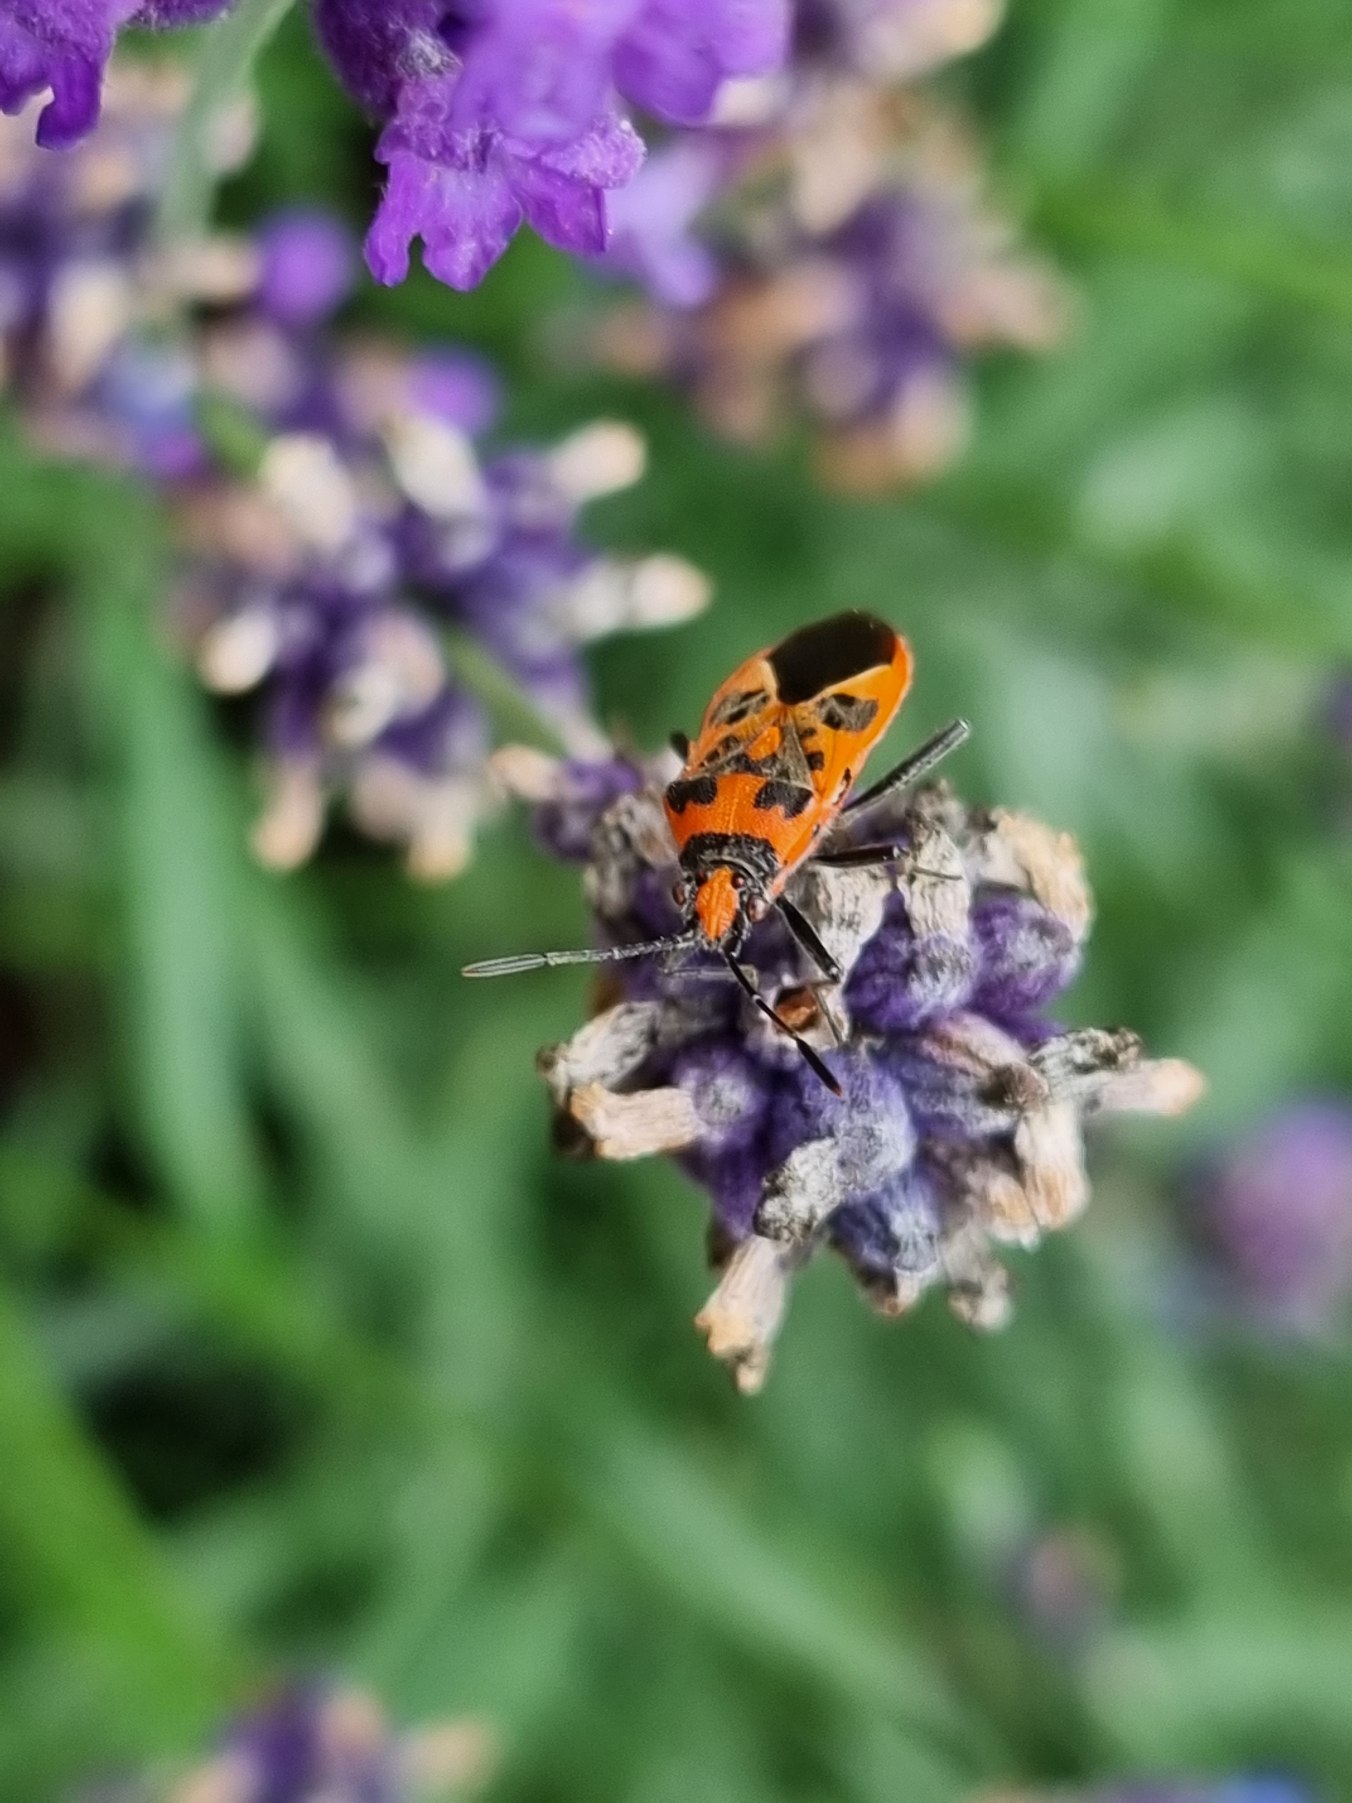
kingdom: Animalia
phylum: Arthropoda
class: Insecta
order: Hemiptera
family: Rhopalidae
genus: Corizus
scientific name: Corizus hyoscyami
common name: Rød kanttæge
